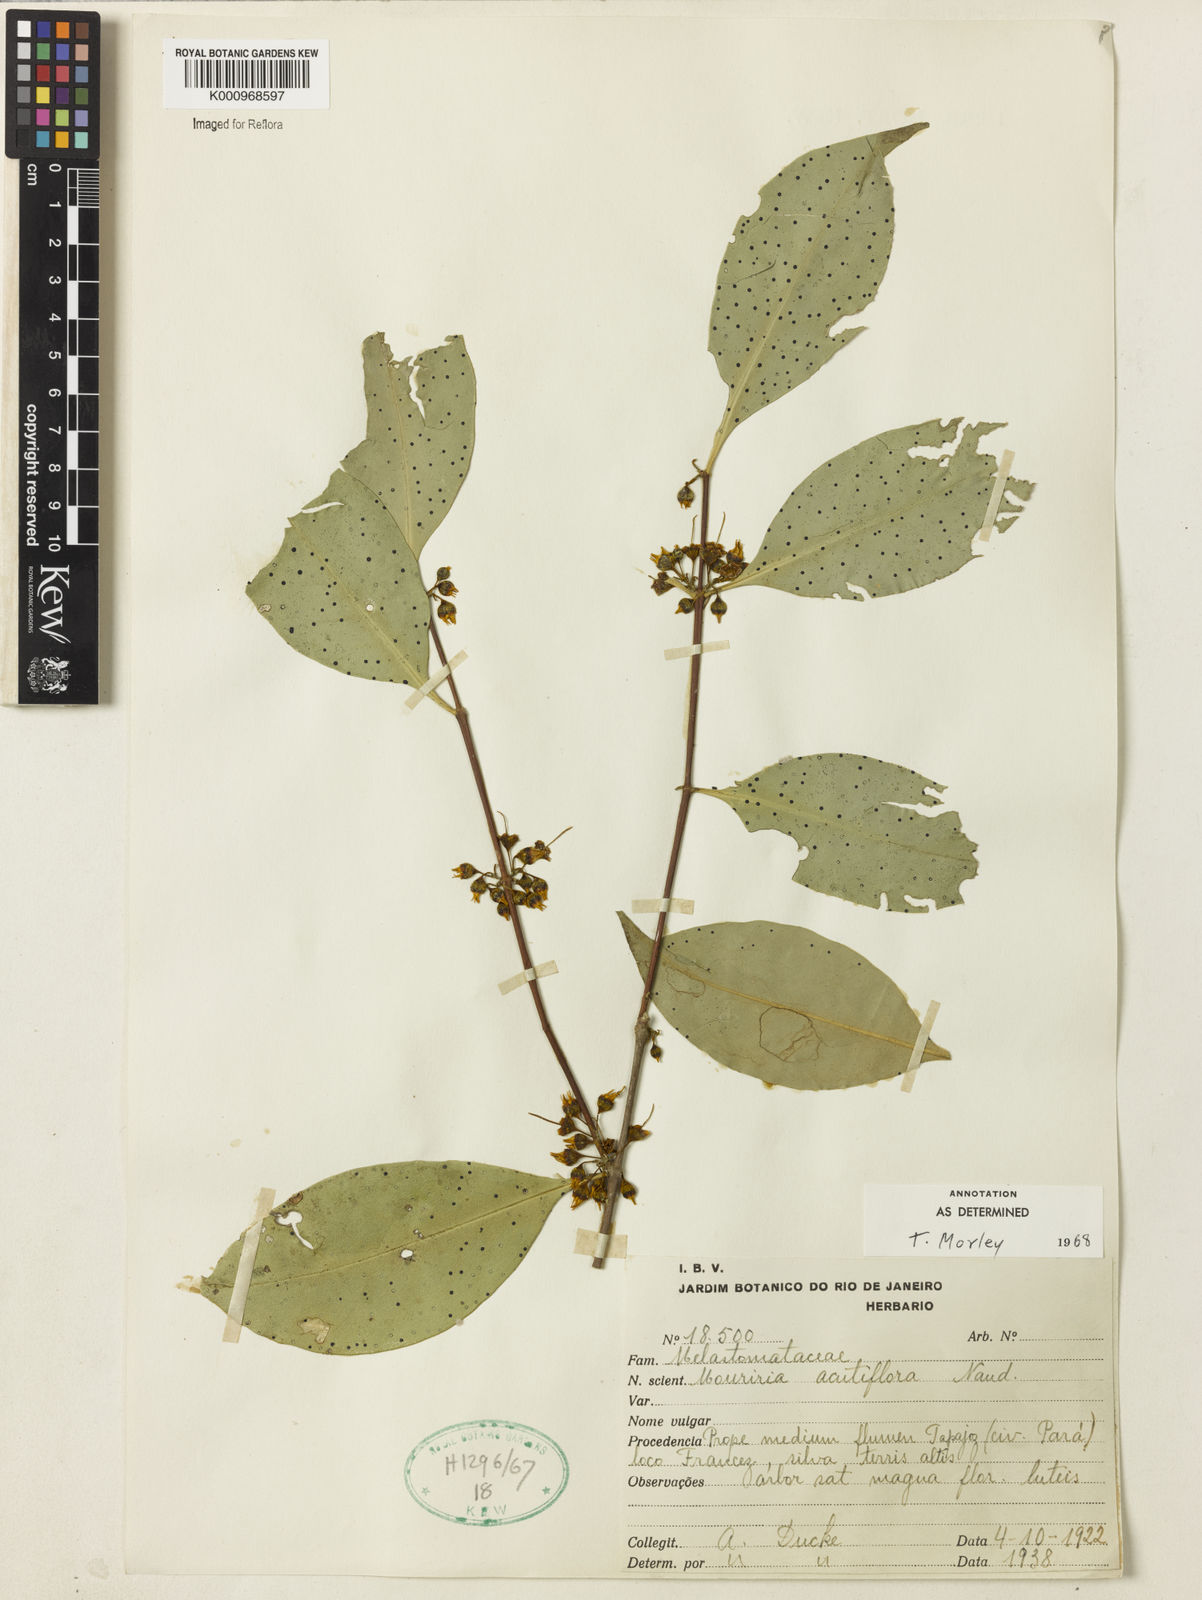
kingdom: Plantae
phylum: Tracheophyta
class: Magnoliopsida
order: Myrtales
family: Melastomataceae
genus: Mouriri
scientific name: Mouriri acutiflora
